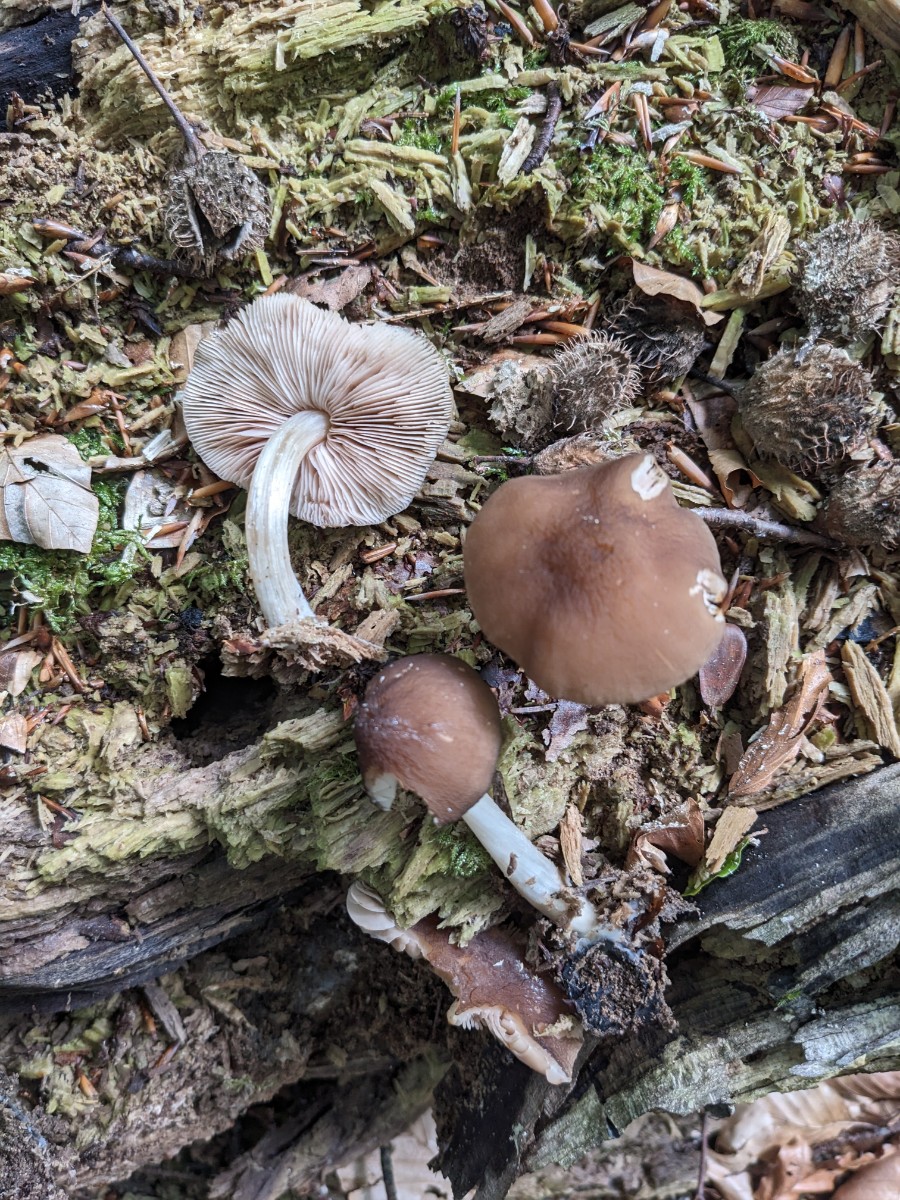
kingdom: Fungi
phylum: Basidiomycota
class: Agaricomycetes
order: Agaricales
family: Pluteaceae
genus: Pluteus
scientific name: Pluteus phlebophorus
